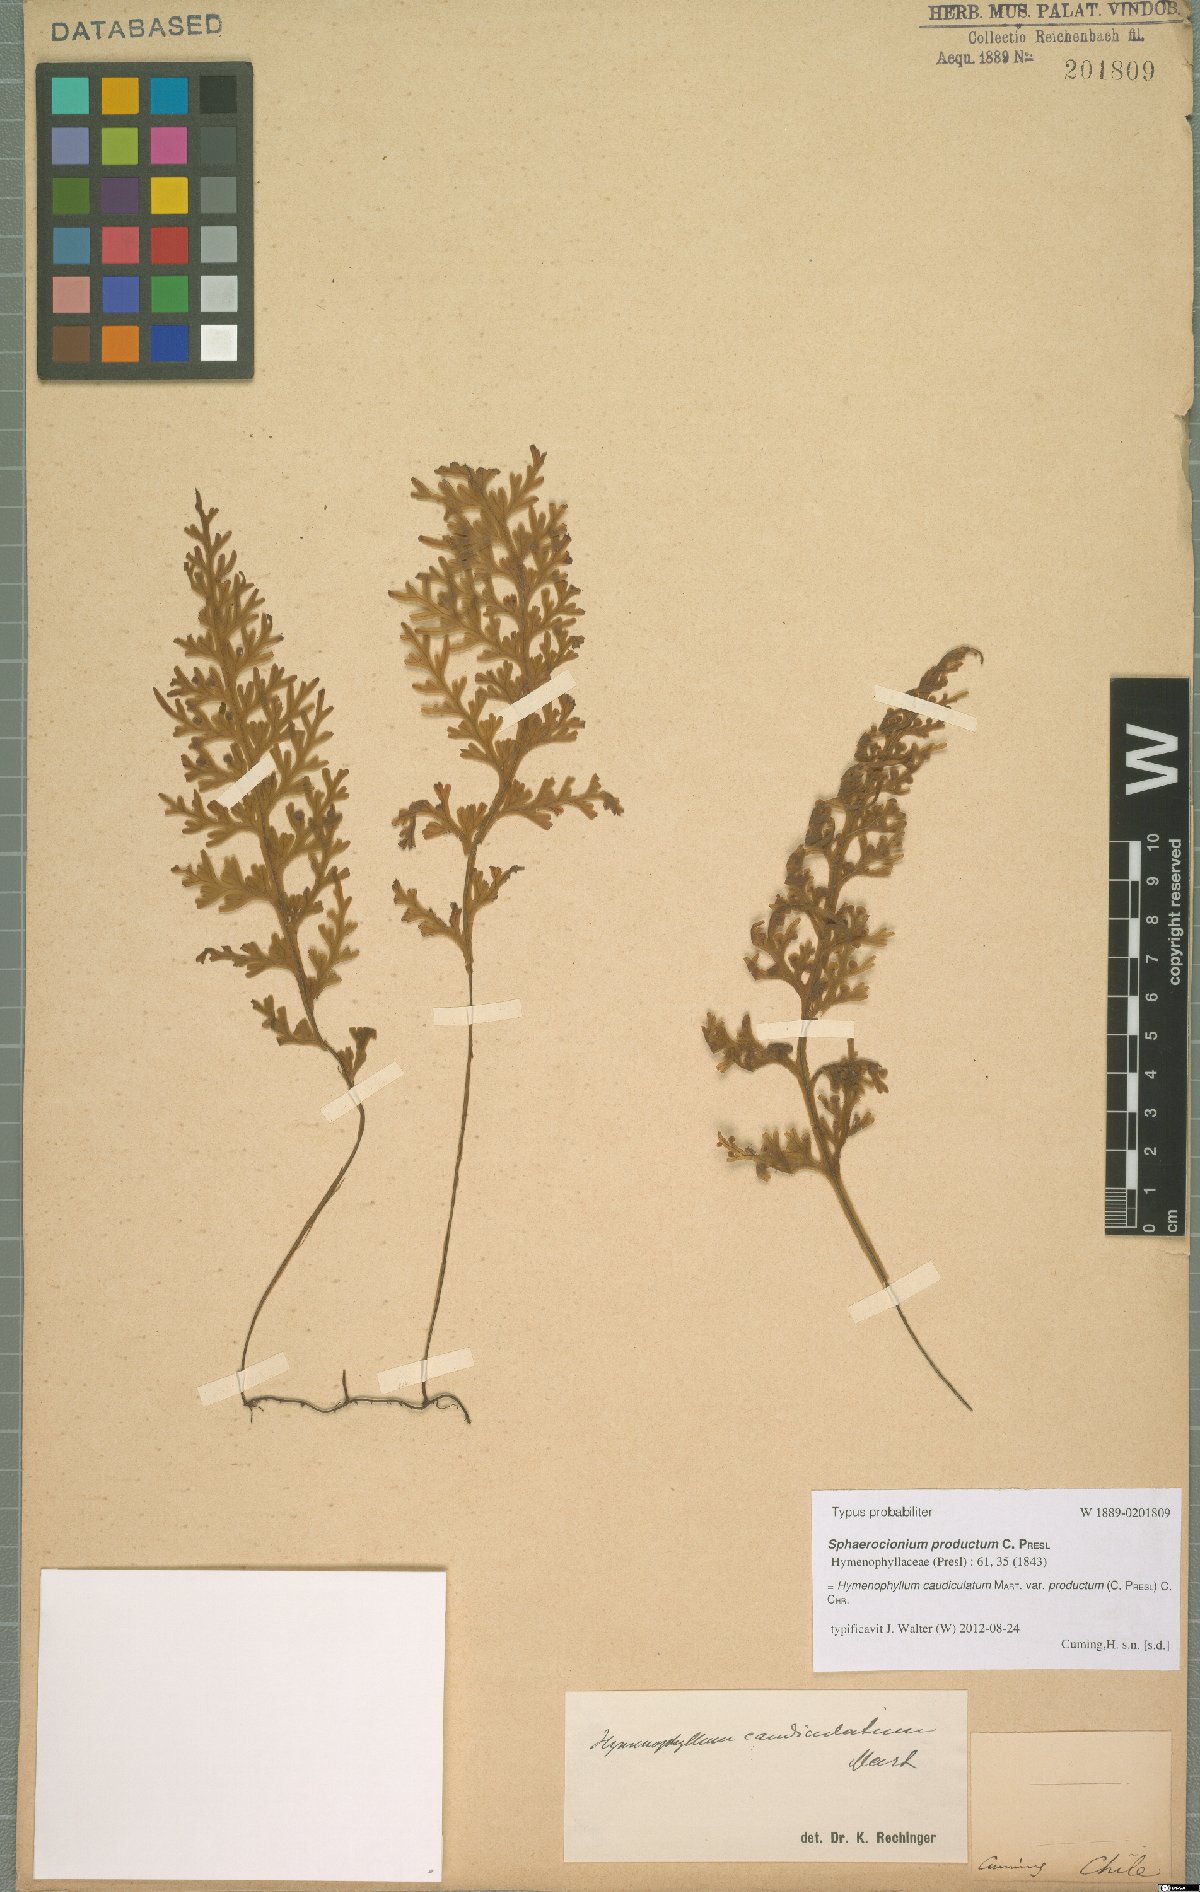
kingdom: Plantae
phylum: Tracheophyta
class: Polypodiopsida
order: Hymenophyllales
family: Hymenophyllaceae
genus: Hymenophyllum
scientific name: Hymenophyllum caudiculatum
